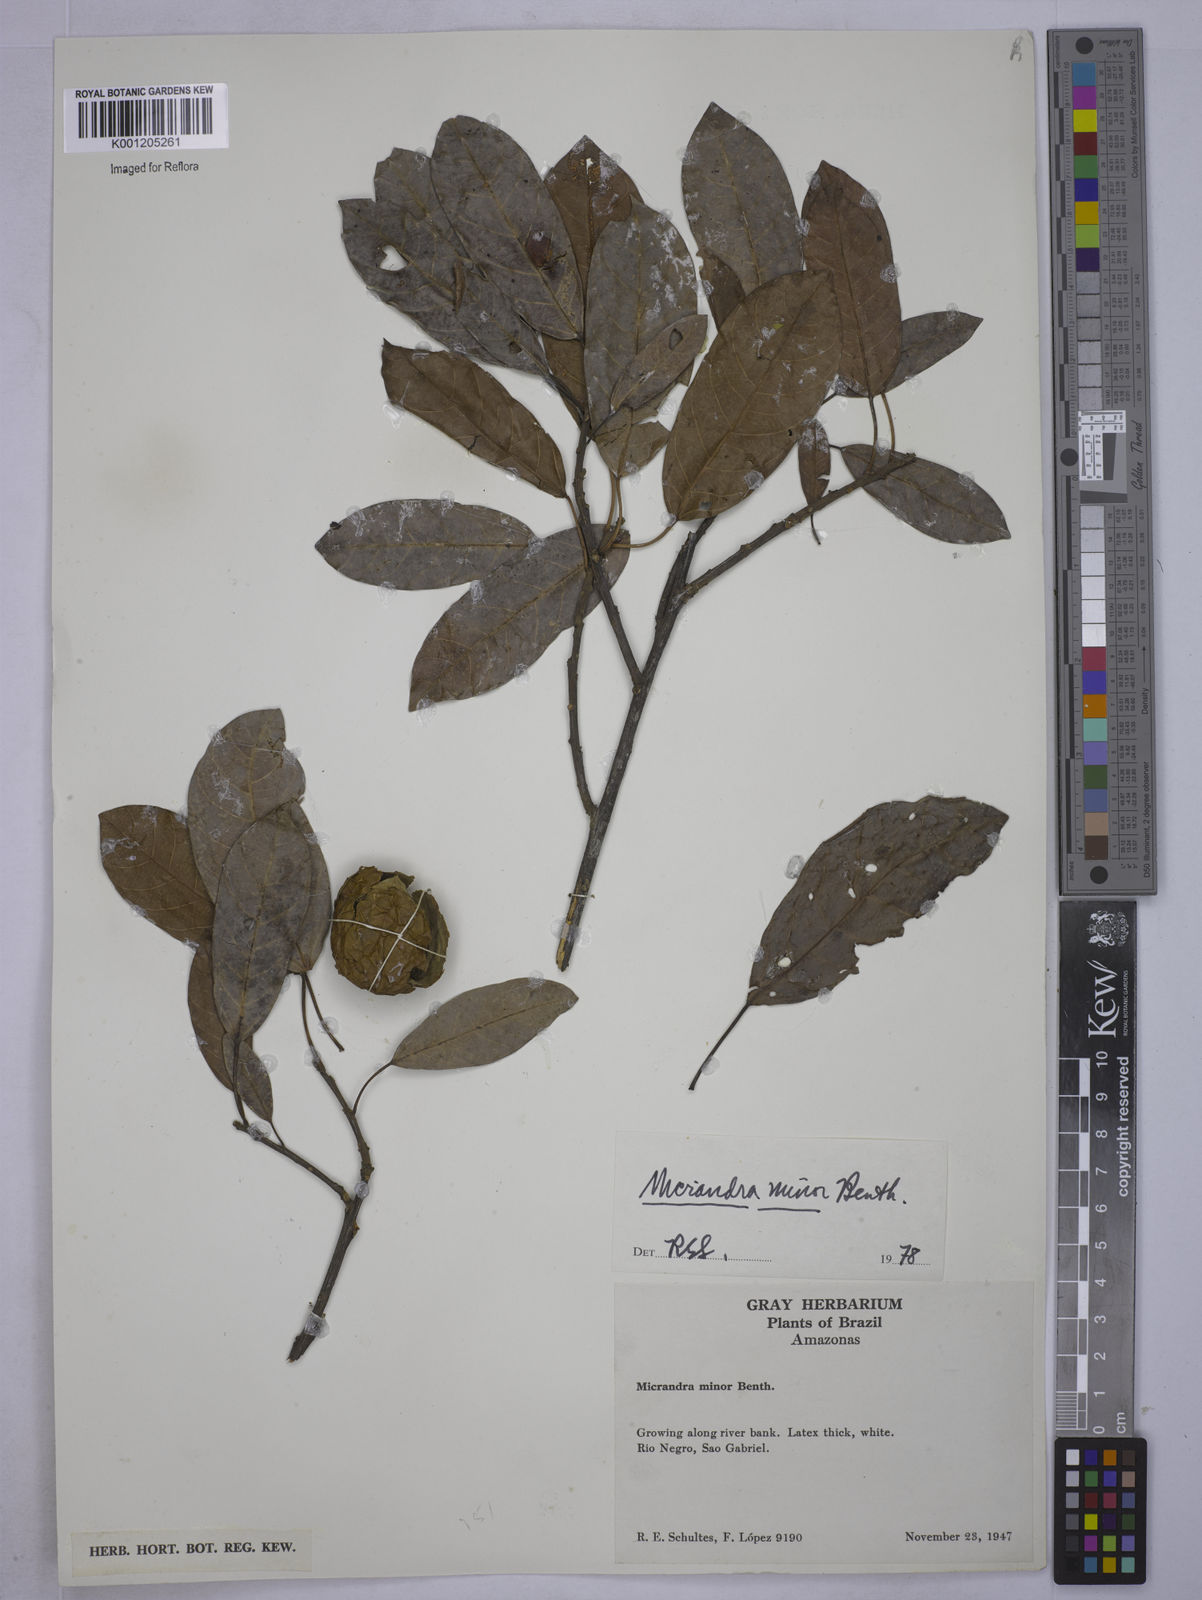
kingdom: Plantae
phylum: Tracheophyta
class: Magnoliopsida
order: Malpighiales
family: Euphorbiaceae
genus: Micrandra
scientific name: Micrandra minor
